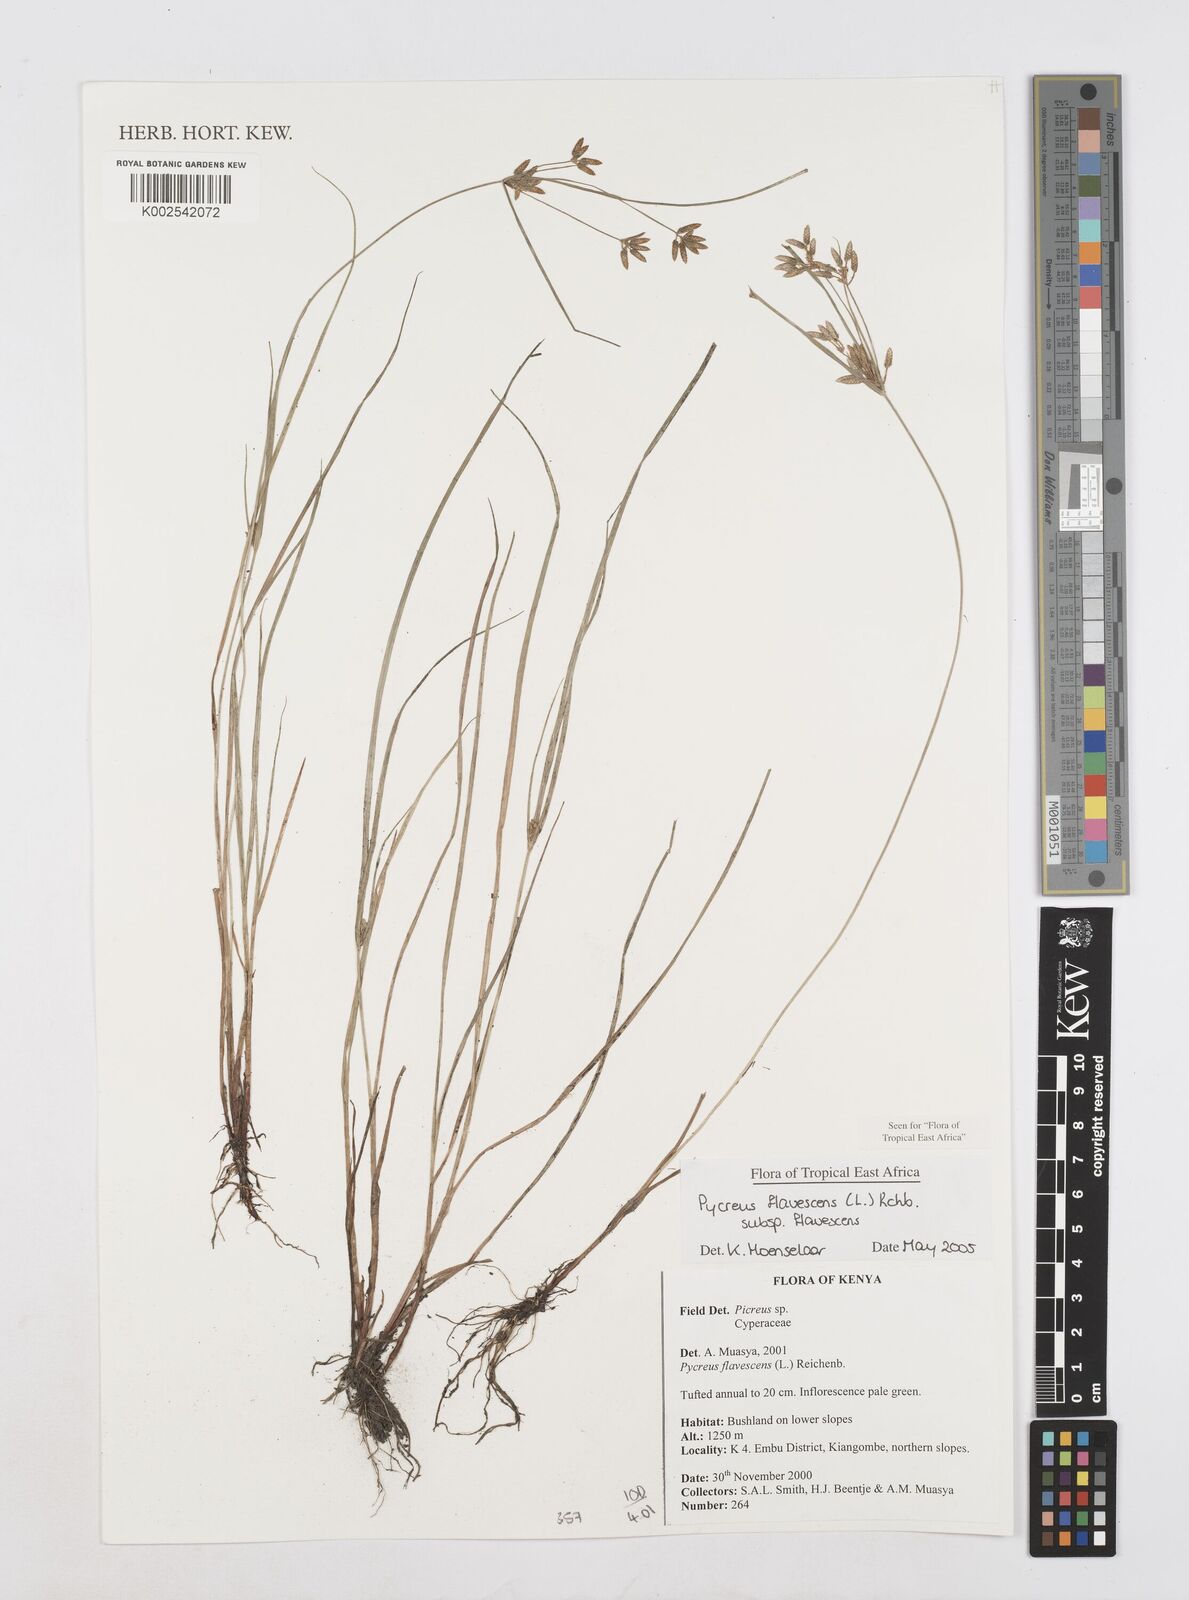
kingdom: Plantae
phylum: Tracheophyta
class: Liliopsida
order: Poales
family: Cyperaceae
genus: Cyperus
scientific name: Cyperus flavescens
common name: Yellow galingale
